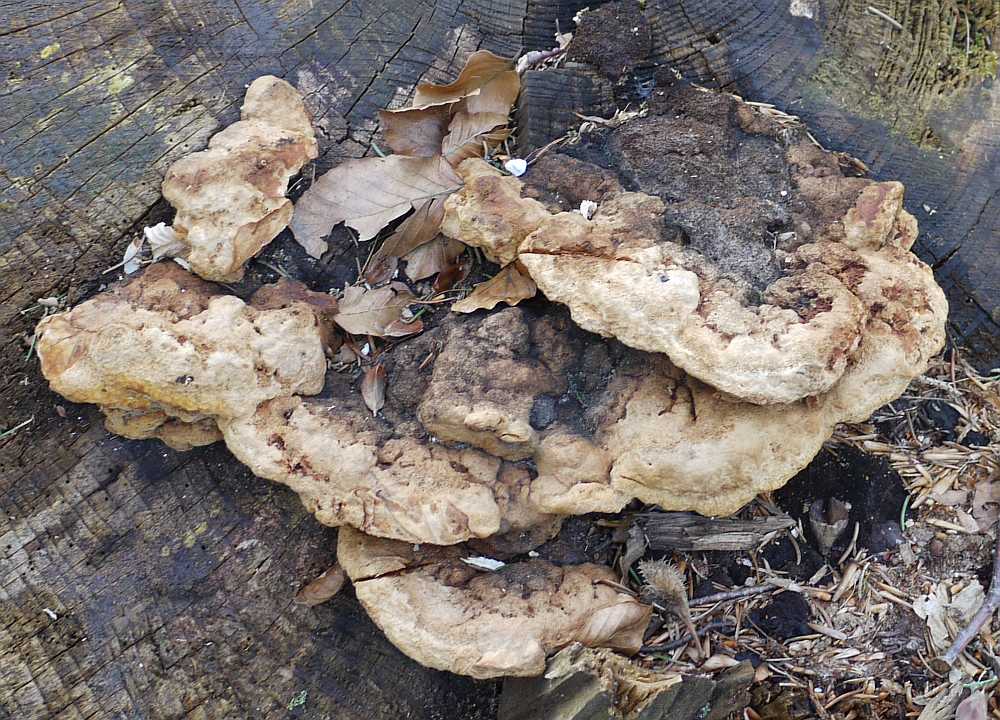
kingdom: Fungi
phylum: Basidiomycota
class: Agaricomycetes
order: Gloeophyllales
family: Gloeophyllaceae
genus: Gloeophyllum
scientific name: Gloeophyllum odoratum
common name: duftende korkhat
